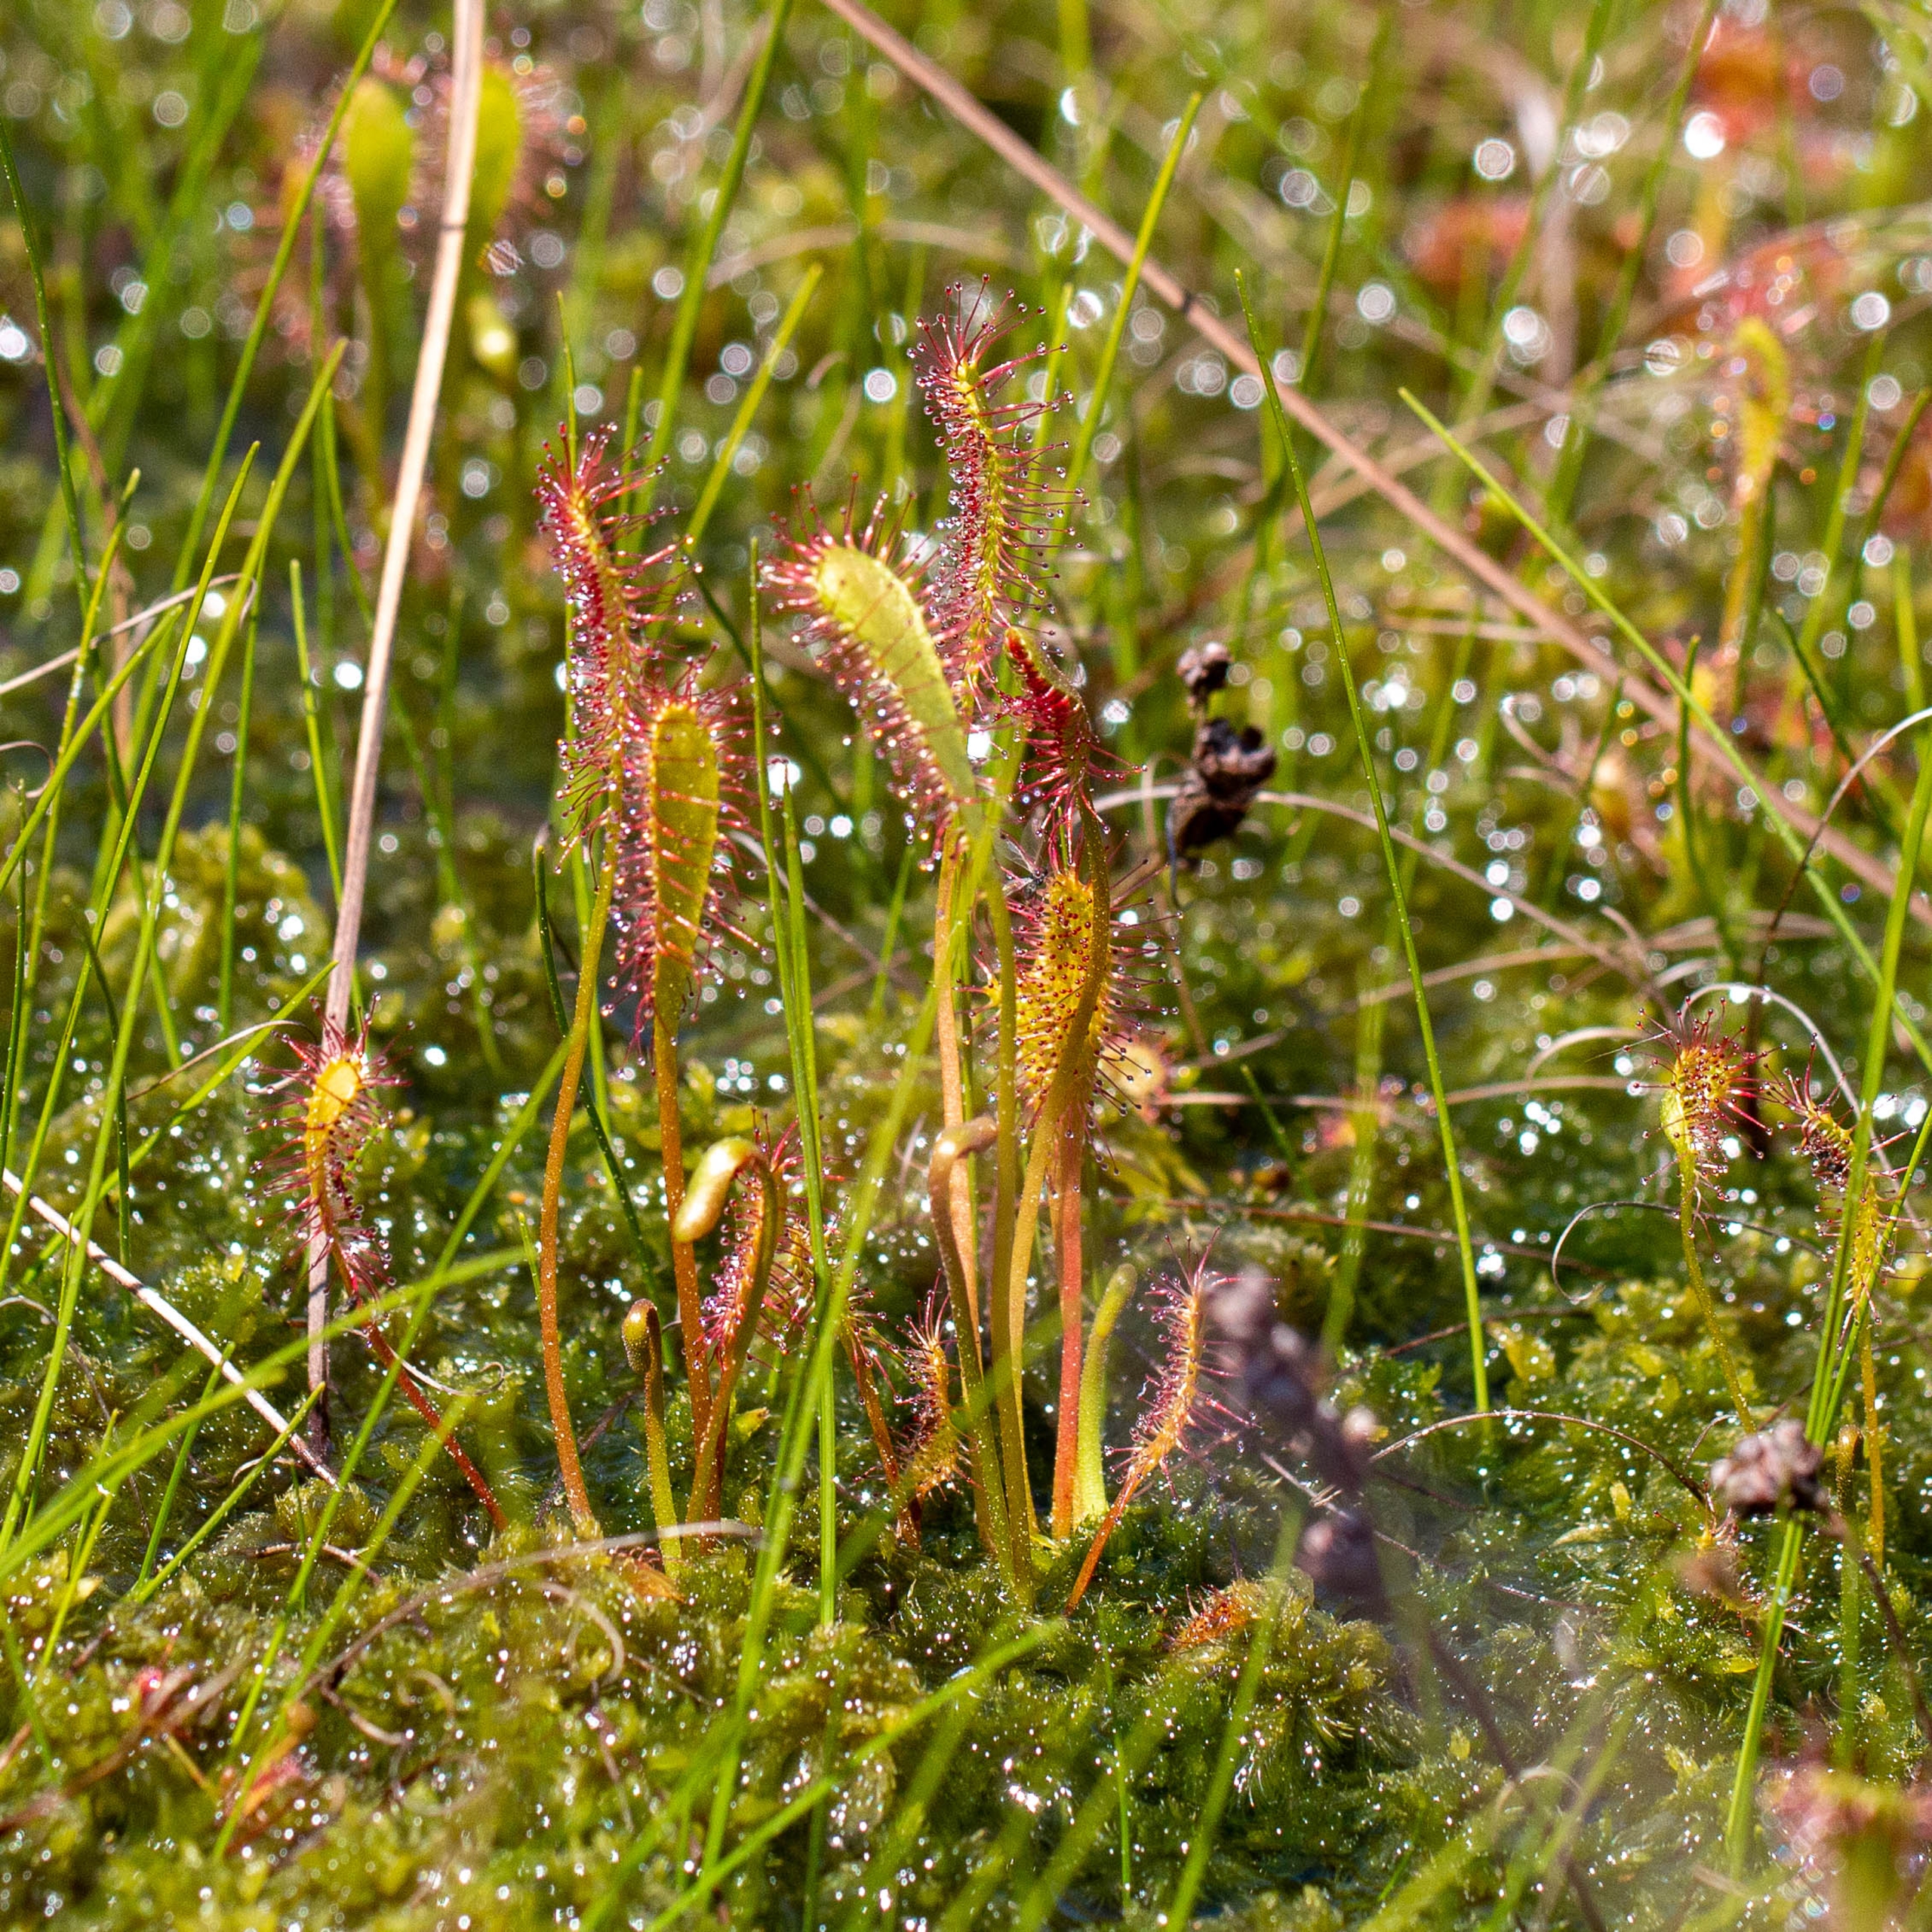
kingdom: Plantae
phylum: Tracheophyta
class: Magnoliopsida
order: Caryophyllales
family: Droseraceae
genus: Drosera
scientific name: Drosera anglica
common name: Langbladet soldug
